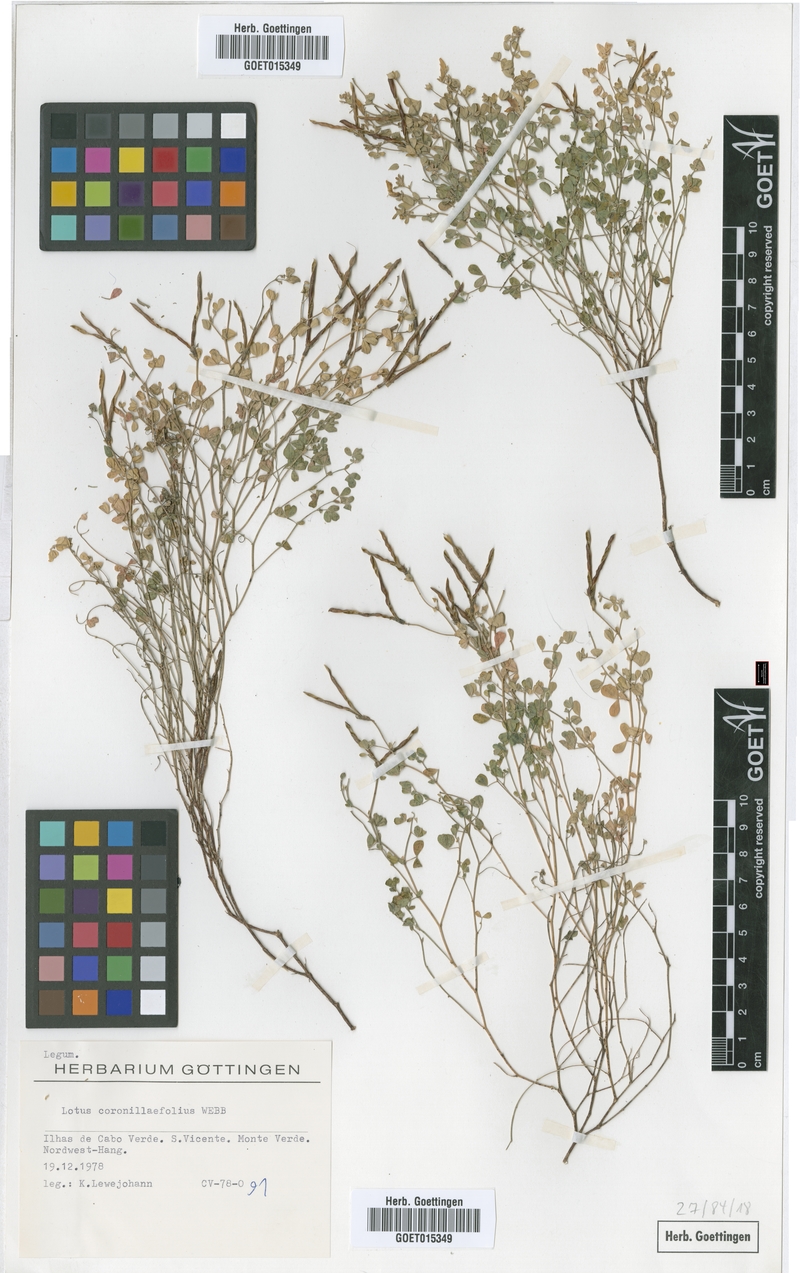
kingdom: Plantae
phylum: Tracheophyta
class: Magnoliopsida
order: Fabales
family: Fabaceae
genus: Lotus
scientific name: Lotus coronillaefolius
